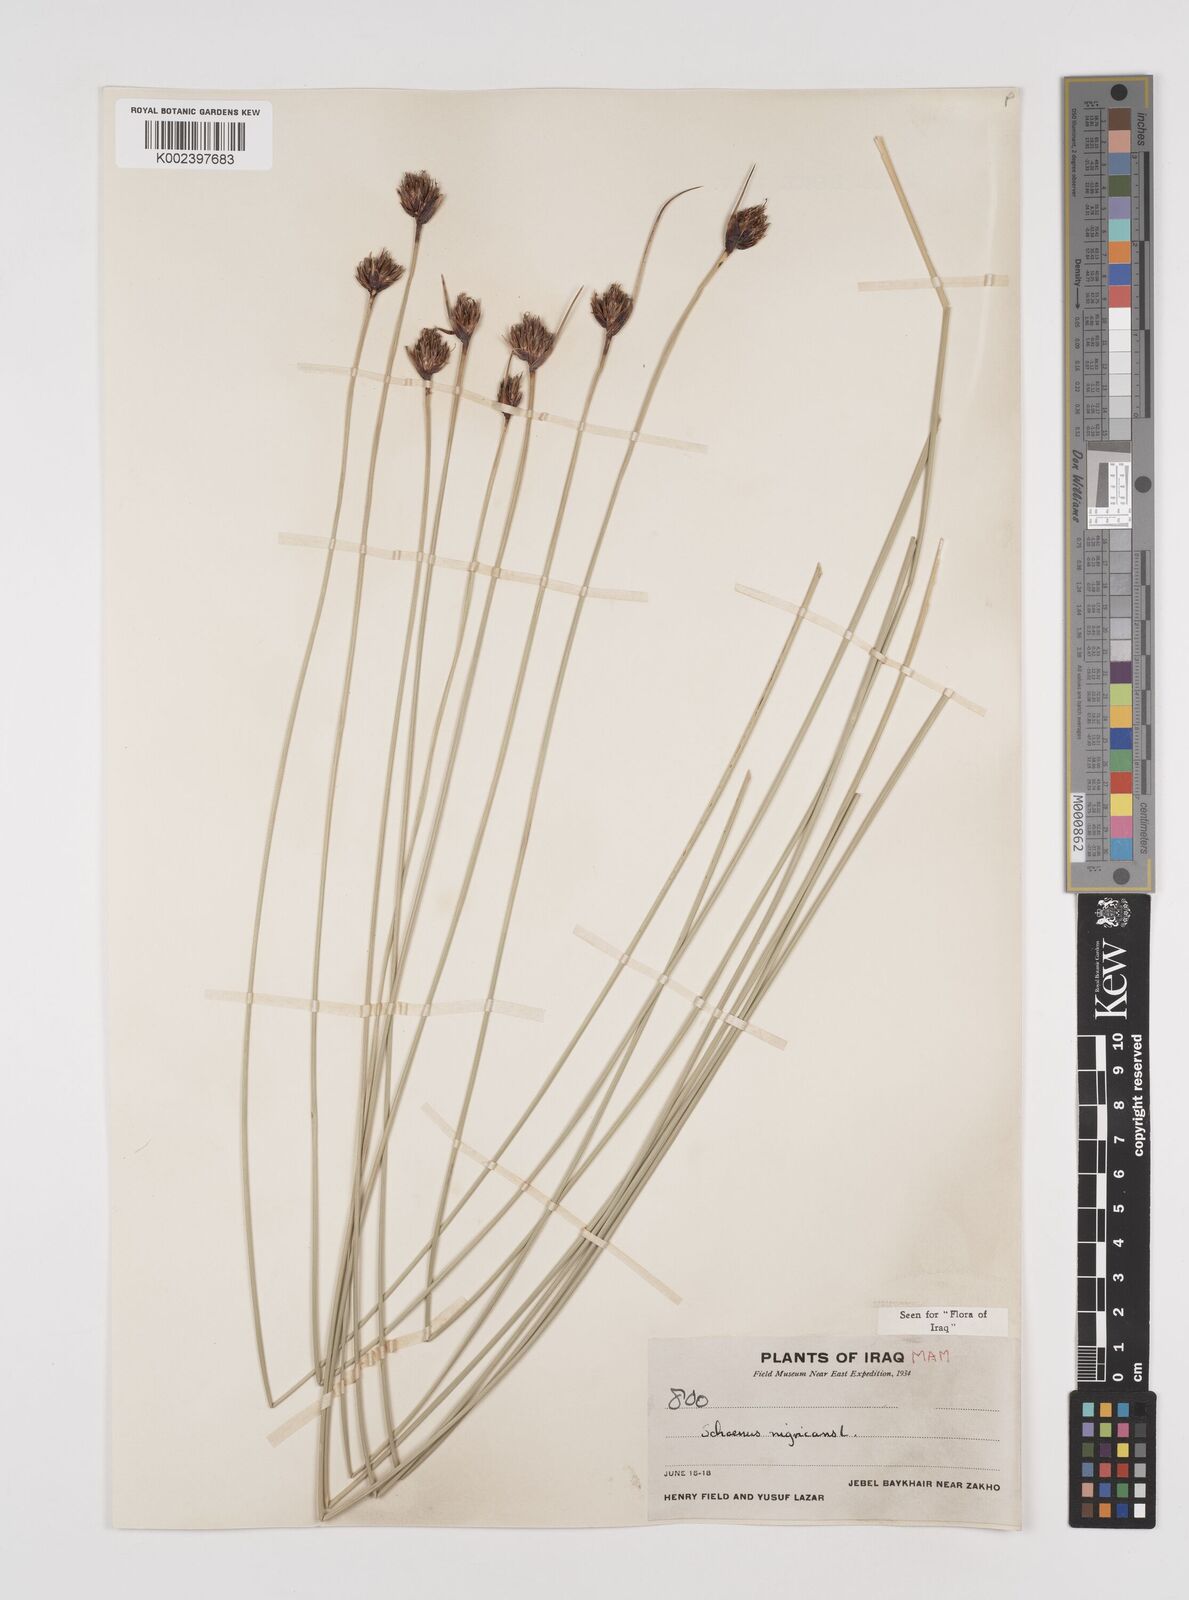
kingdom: Plantae
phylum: Tracheophyta
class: Liliopsida
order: Poales
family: Cyperaceae
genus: Schoenus
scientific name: Schoenus nigricans
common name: Black bog-rush
